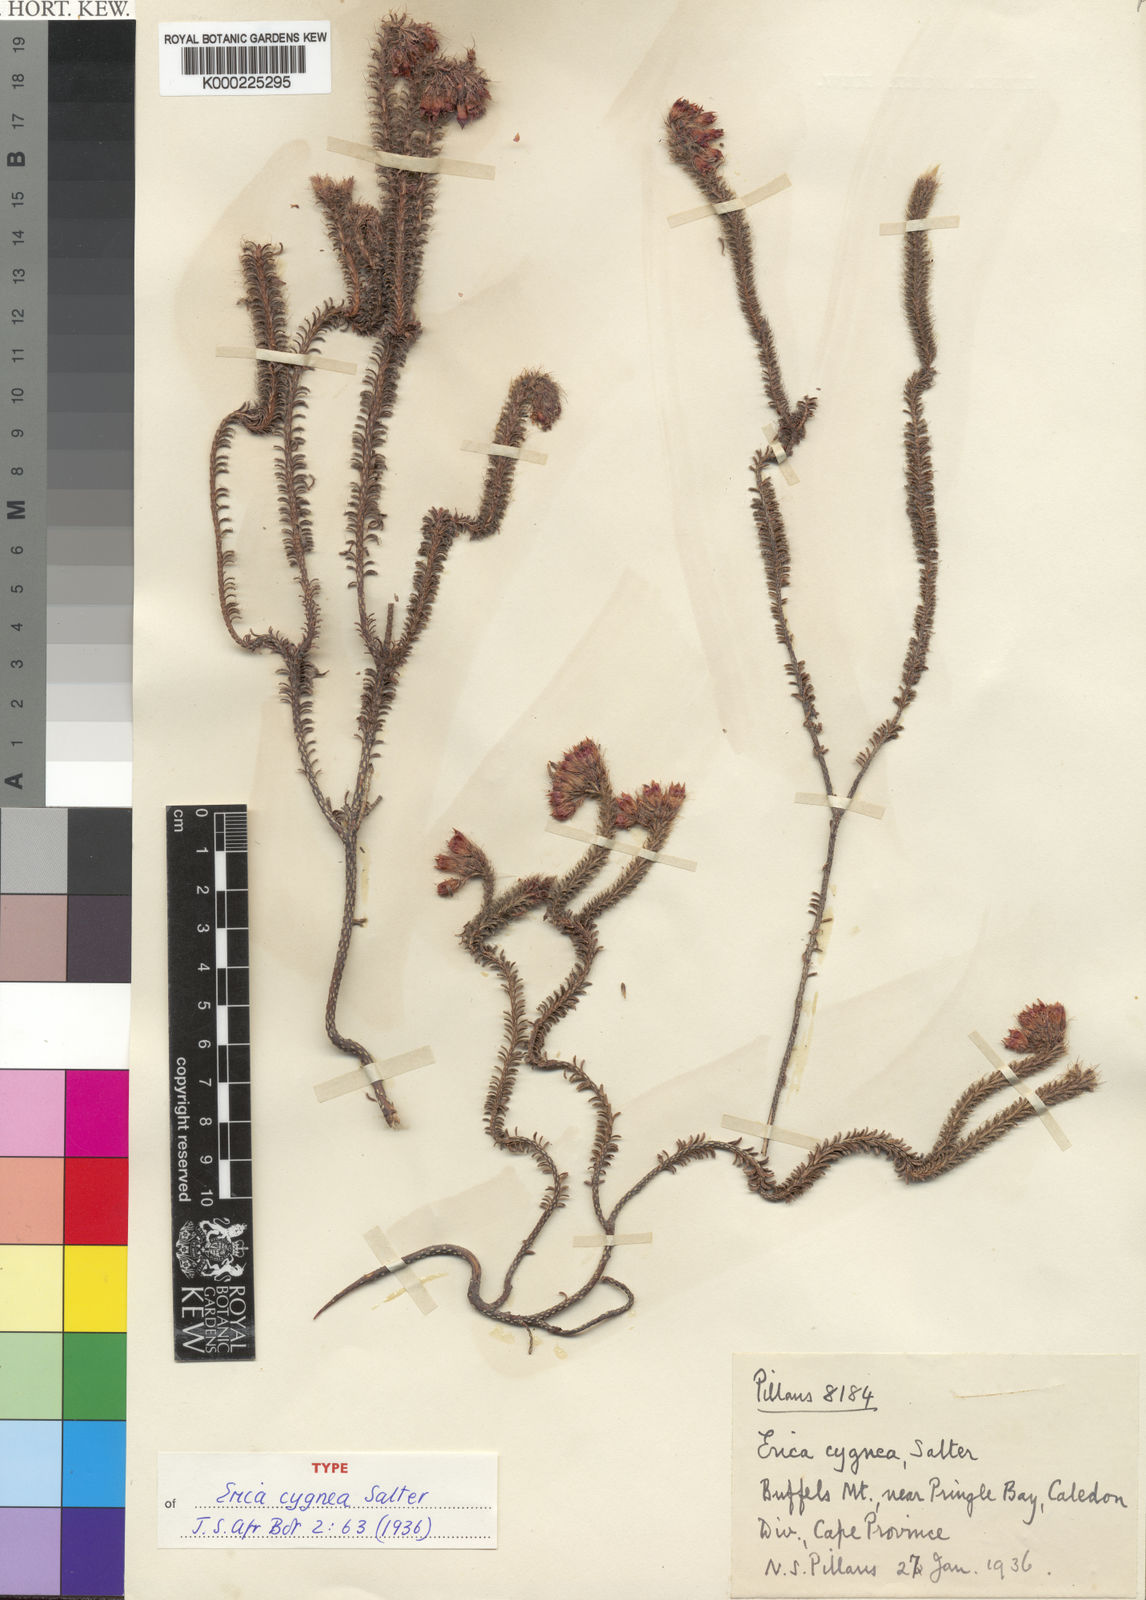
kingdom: Plantae
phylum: Tracheophyta
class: Magnoliopsida
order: Ericales
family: Ericaceae
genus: Erica
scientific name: Erica cygnea
